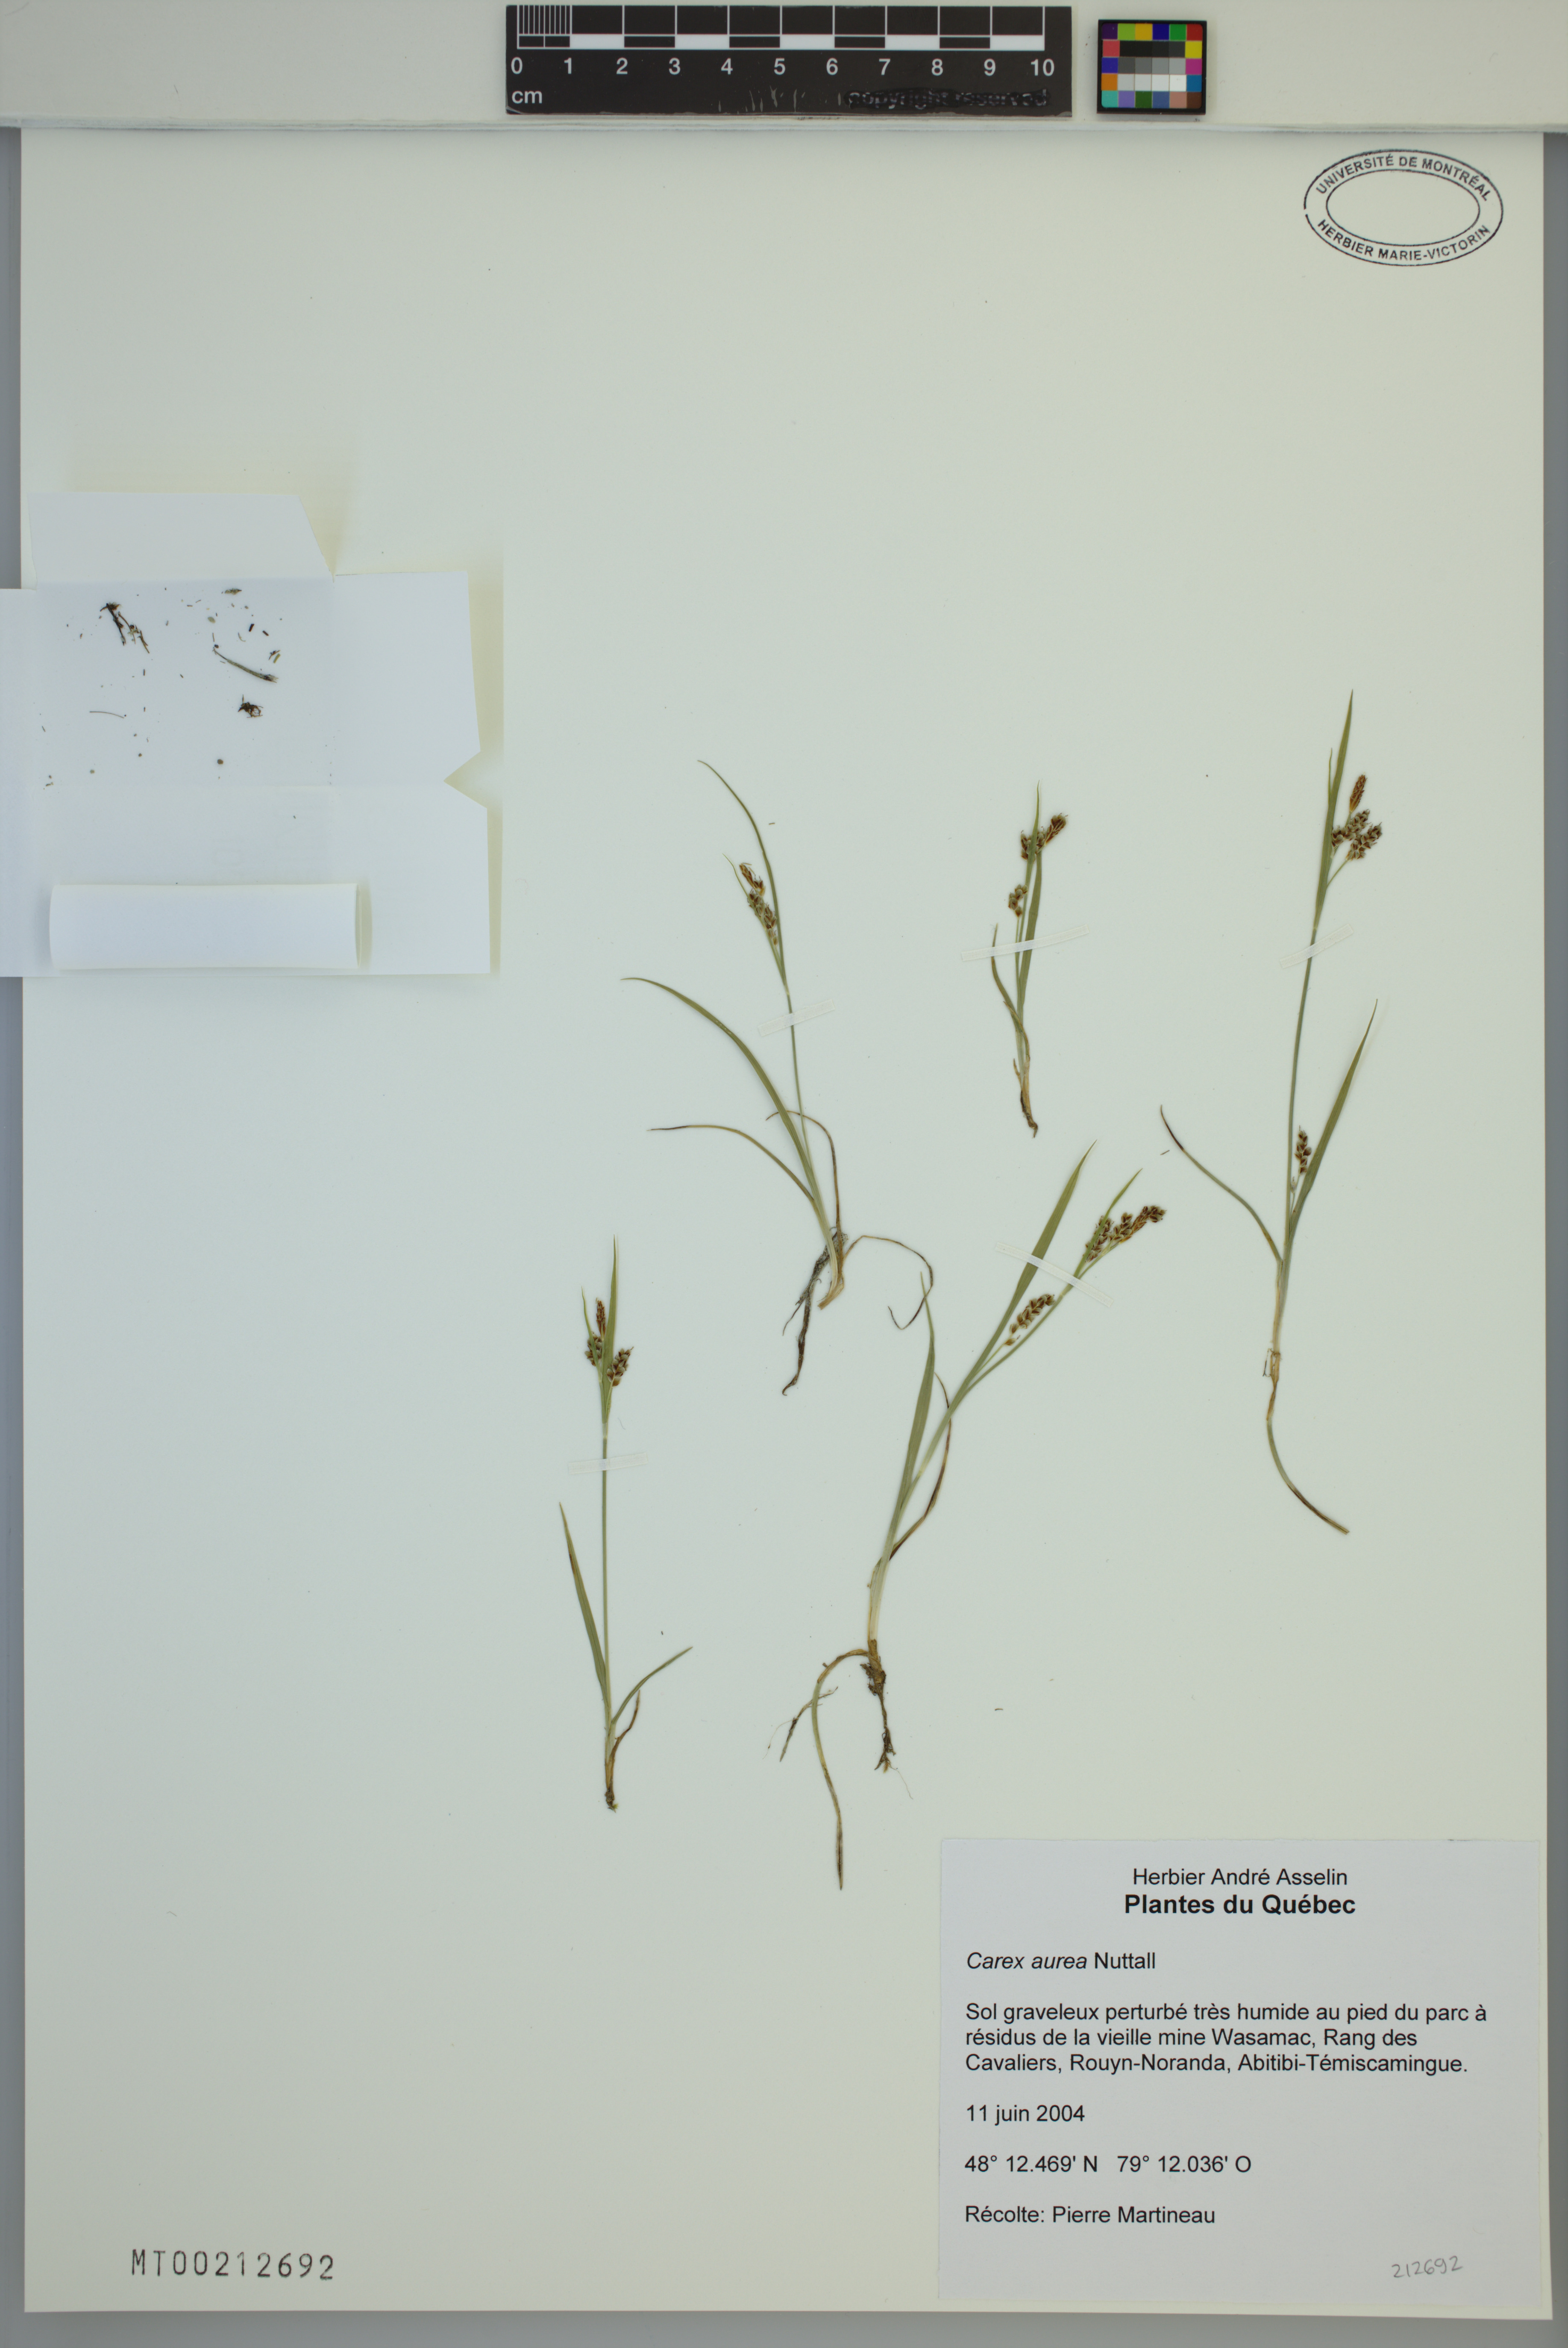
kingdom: Plantae
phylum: Tracheophyta
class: Liliopsida
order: Poales
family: Cyperaceae
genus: Carex
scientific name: Carex aurea
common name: Golden sedge
